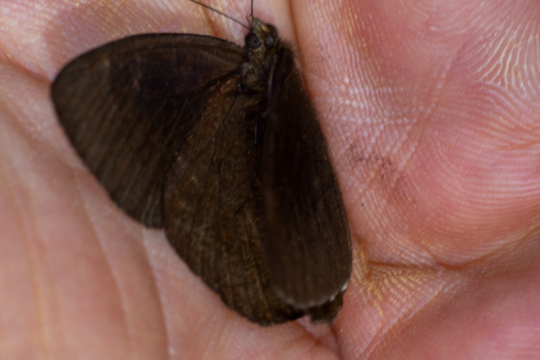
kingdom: Animalia
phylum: Arthropoda
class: Insecta
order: Lepidoptera
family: Nymphalidae
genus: Praepedaliodes
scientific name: Praepedaliodes phanias
